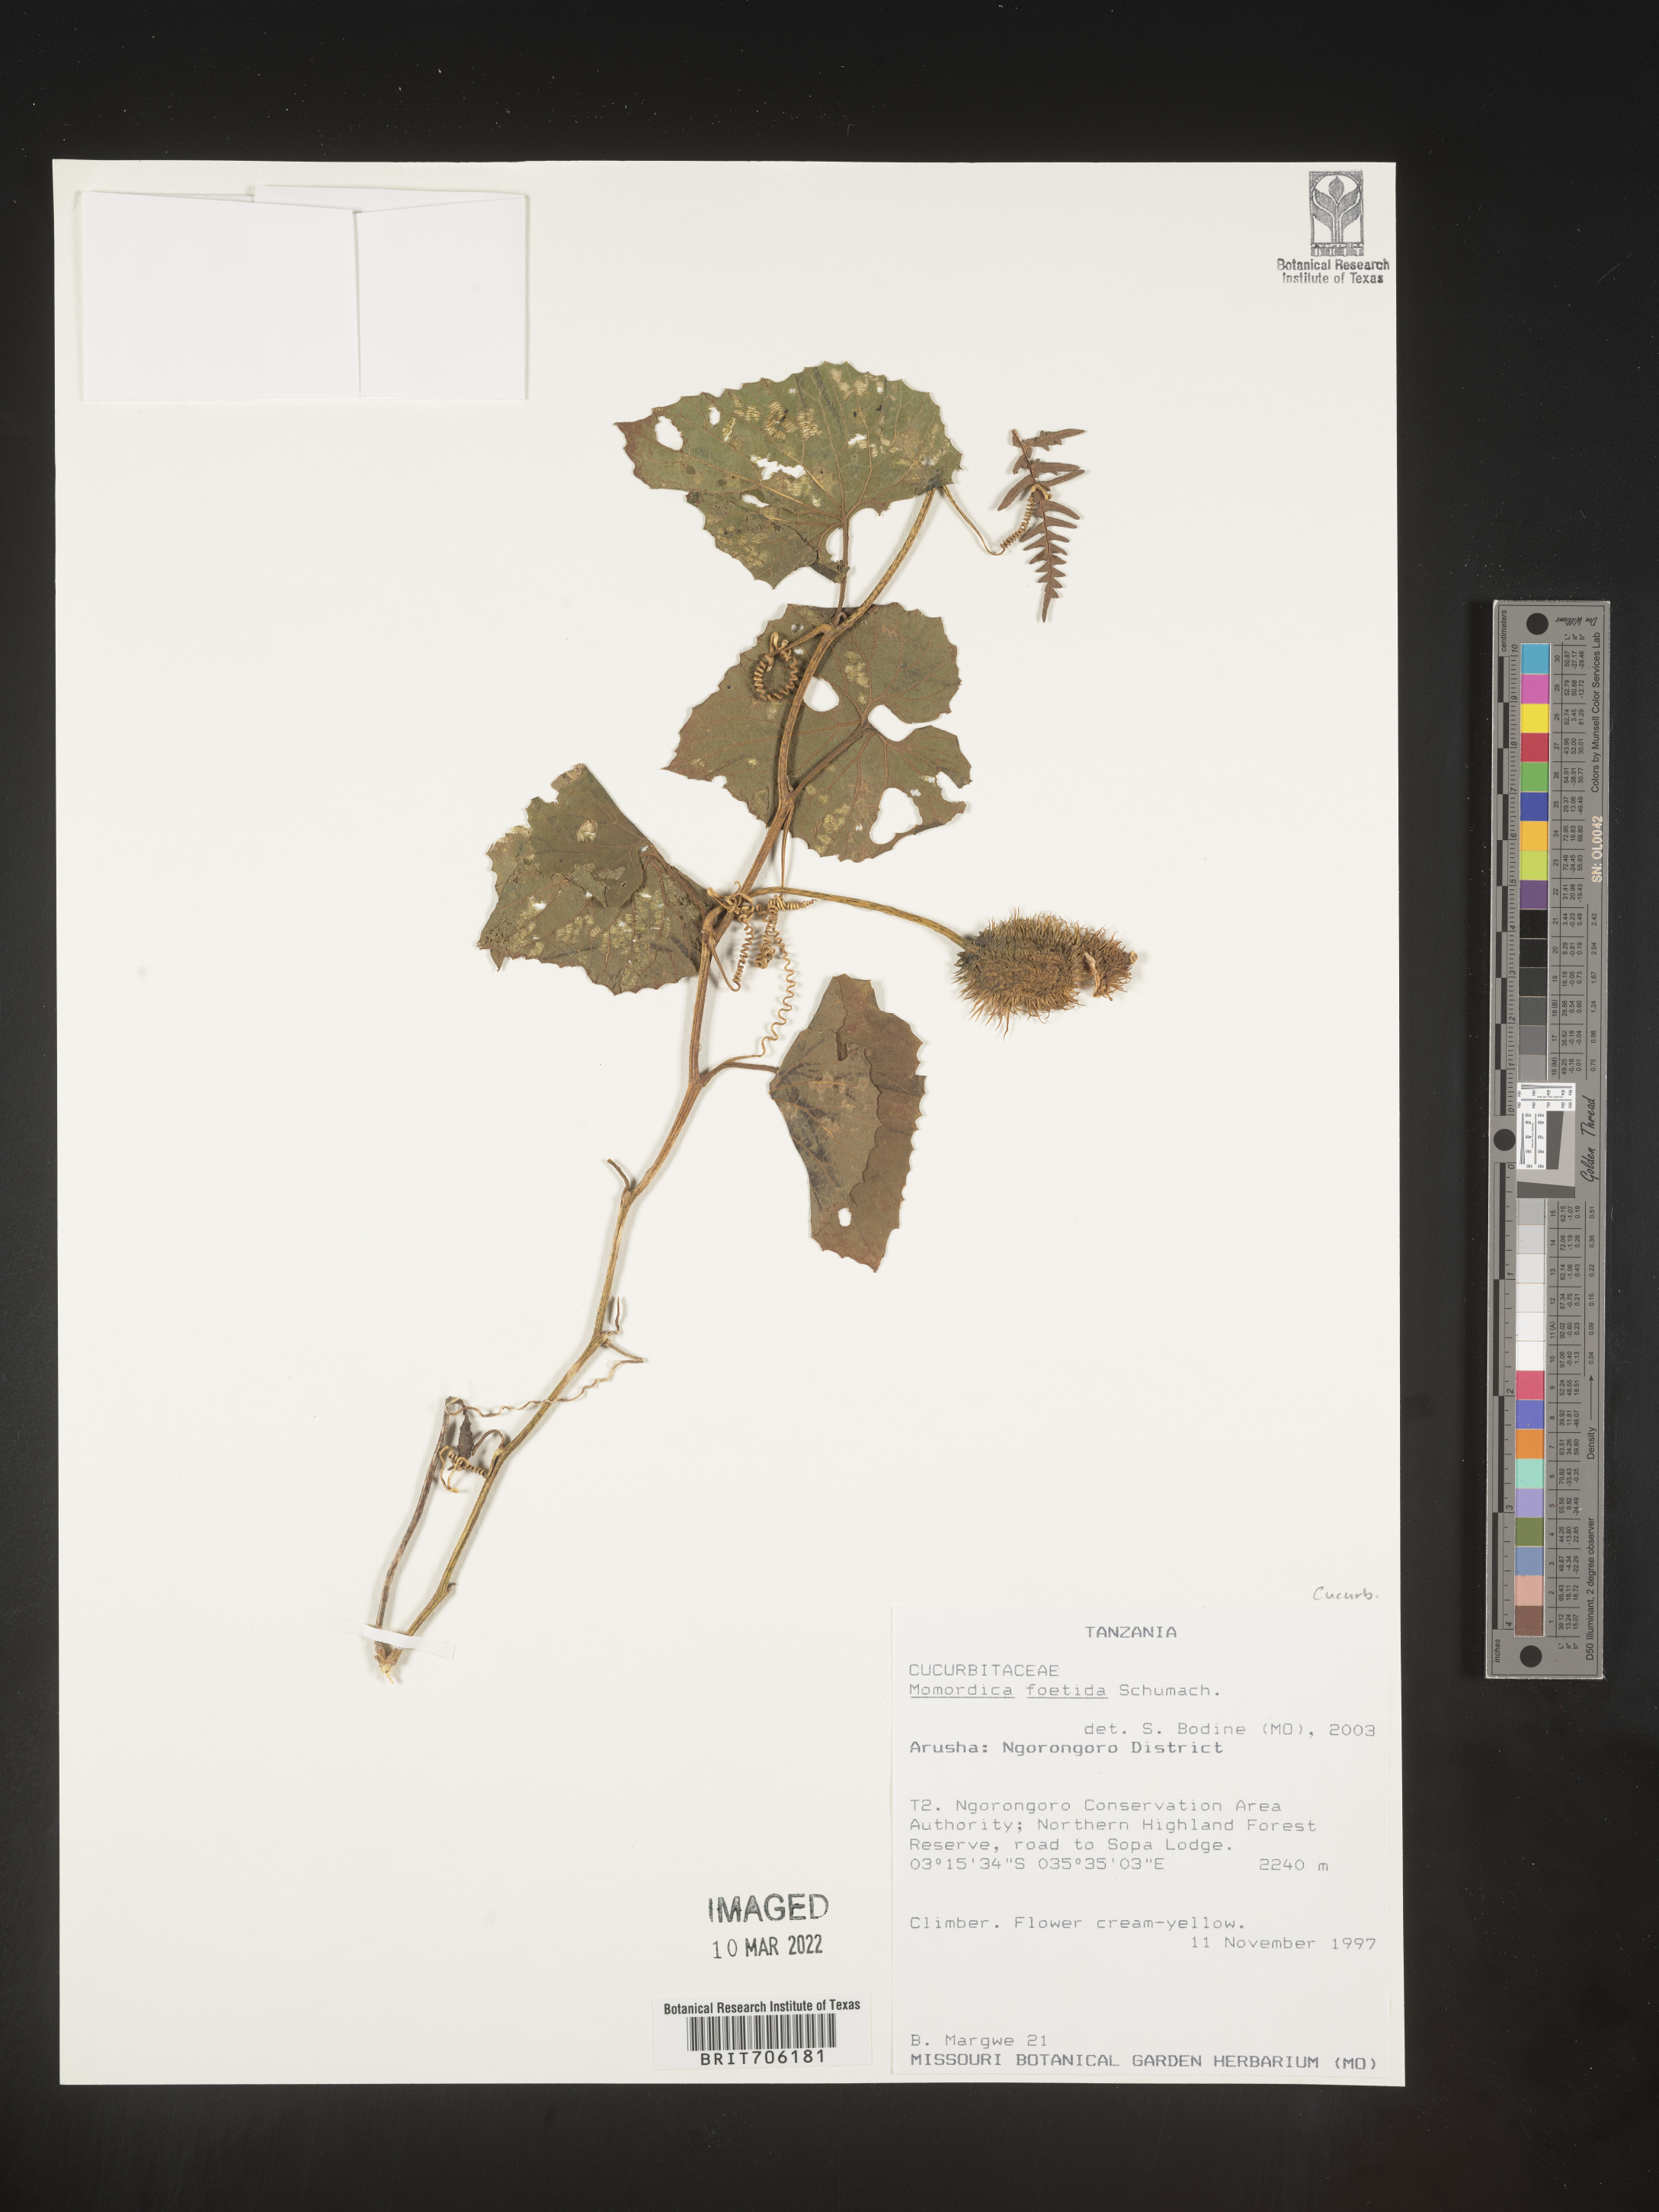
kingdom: Plantae
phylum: Tracheophyta
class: Magnoliopsida
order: Cucurbitales
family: Cucurbitaceae
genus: Momordica
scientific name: Momordica
